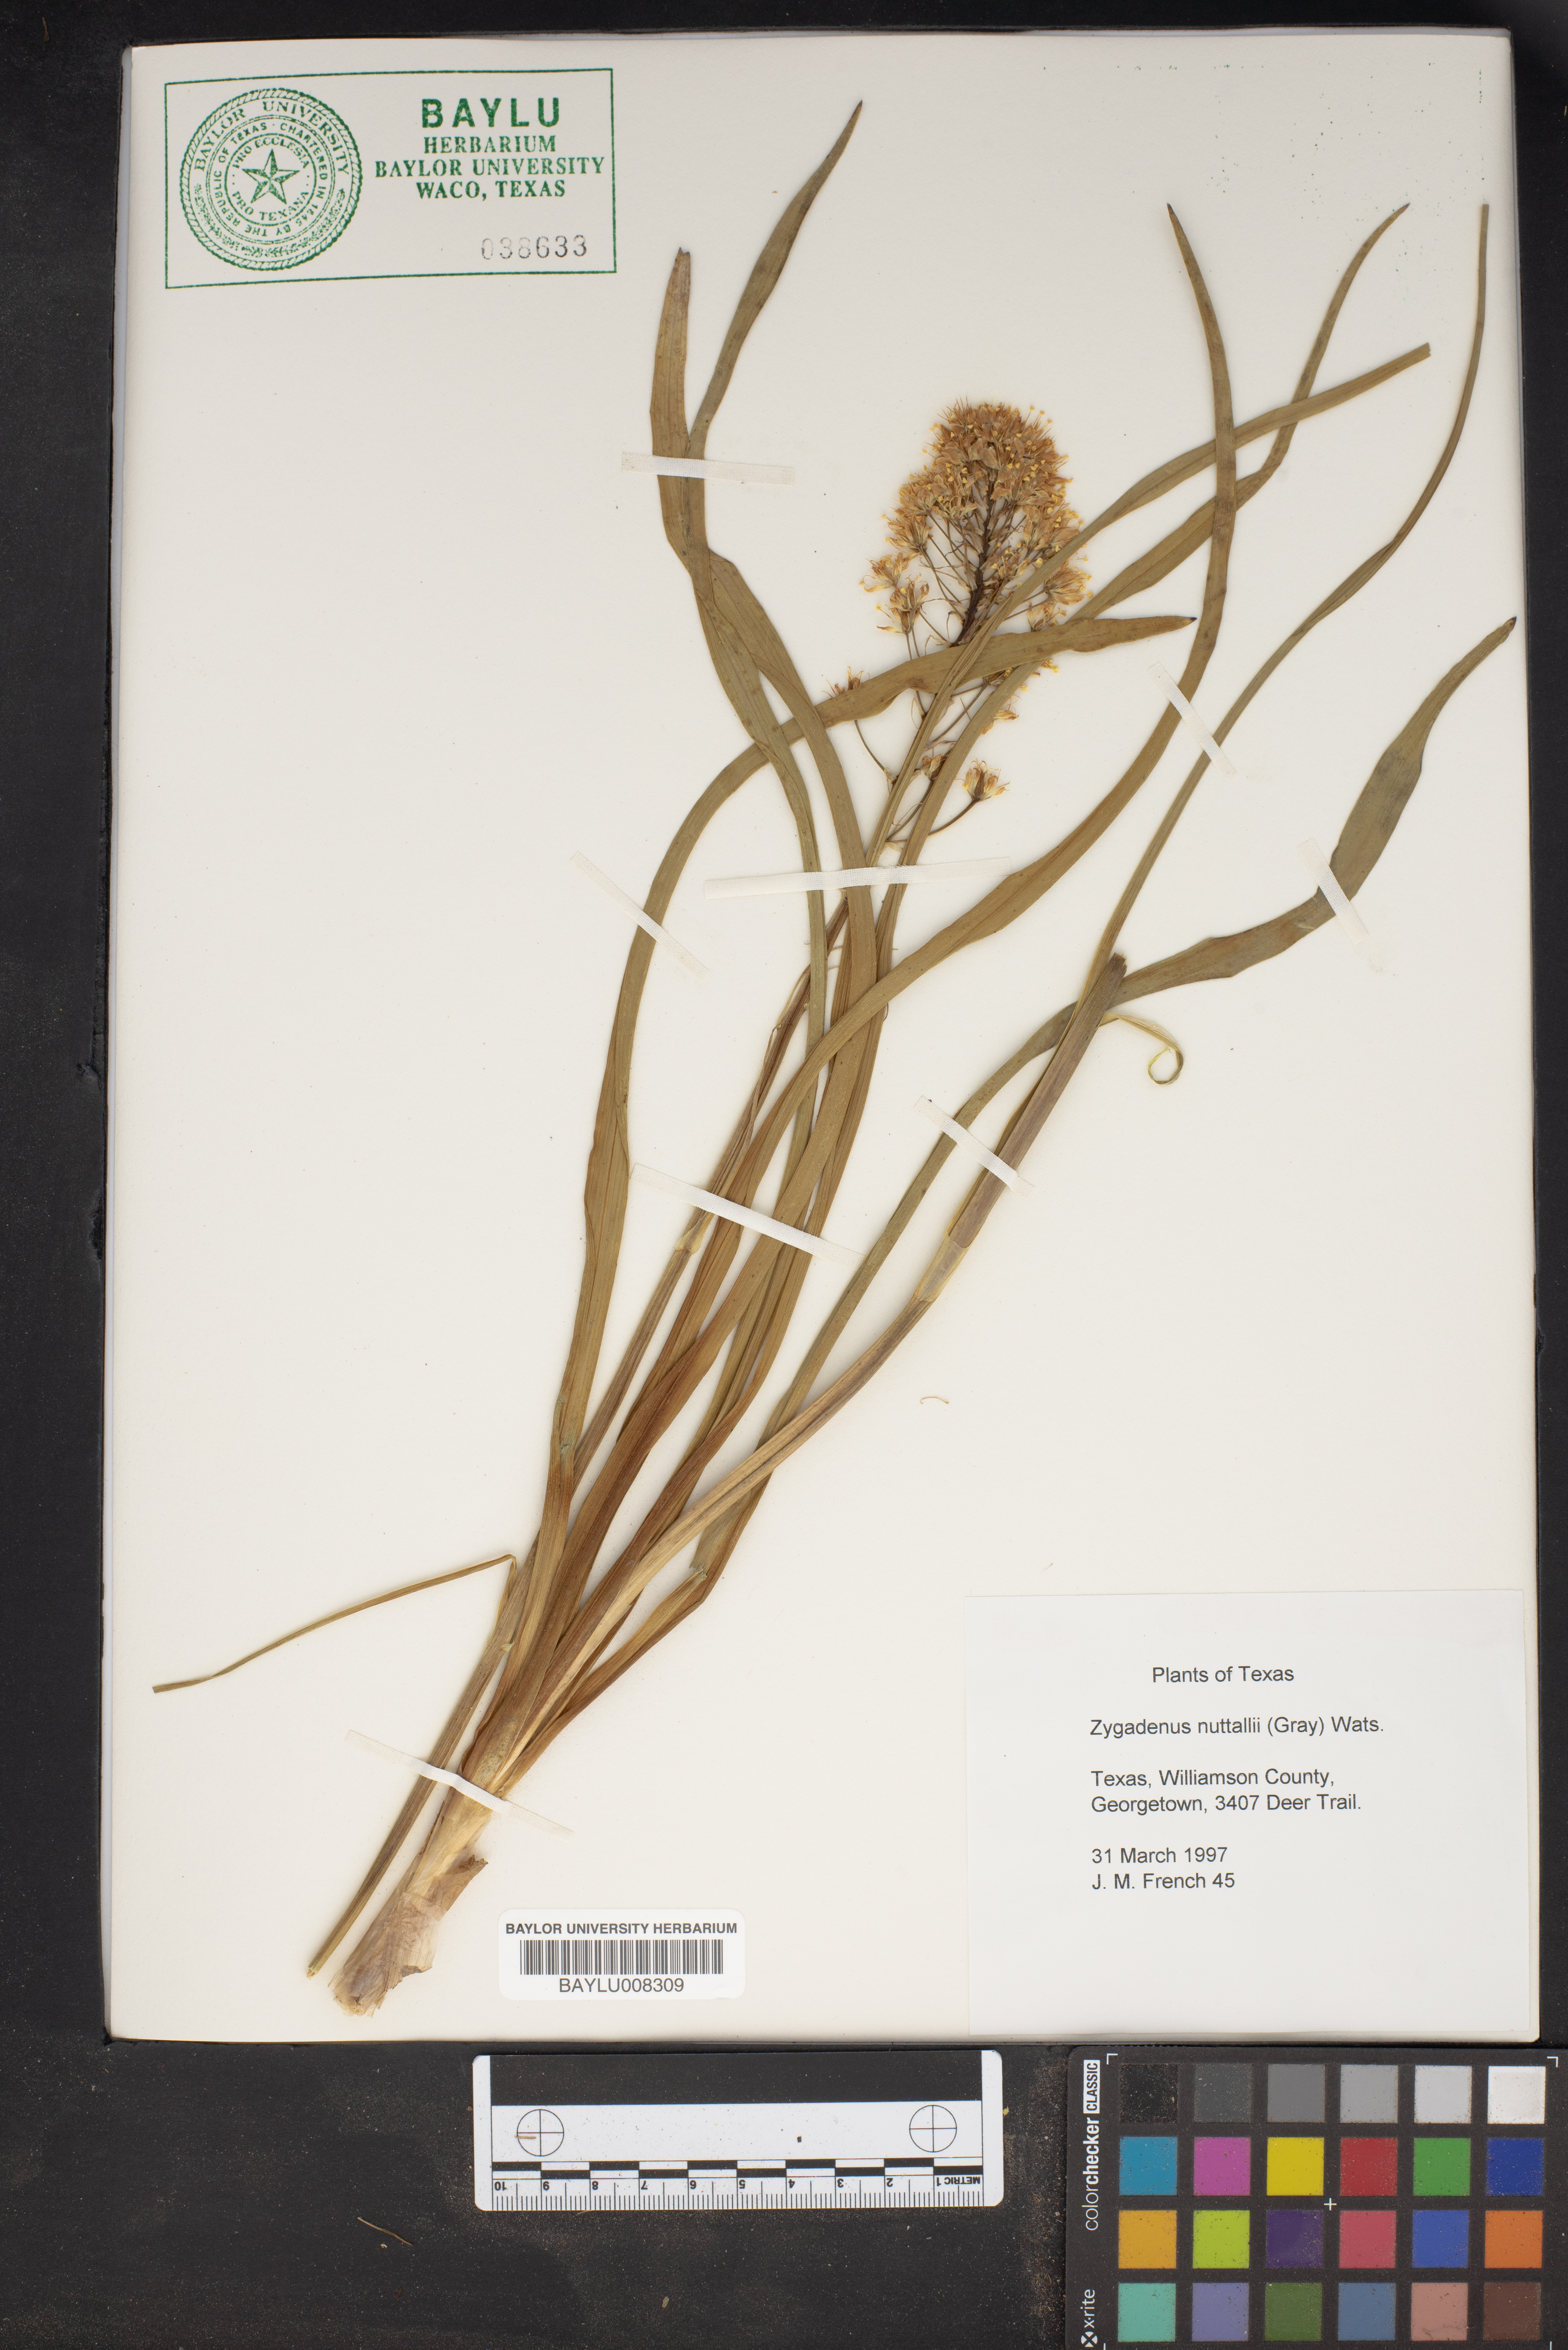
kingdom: Plantae
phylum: Tracheophyta
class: Liliopsida
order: Liliales
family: Melanthiaceae
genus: Toxicoscordion
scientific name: Toxicoscordion nuttallii
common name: Poison sego
